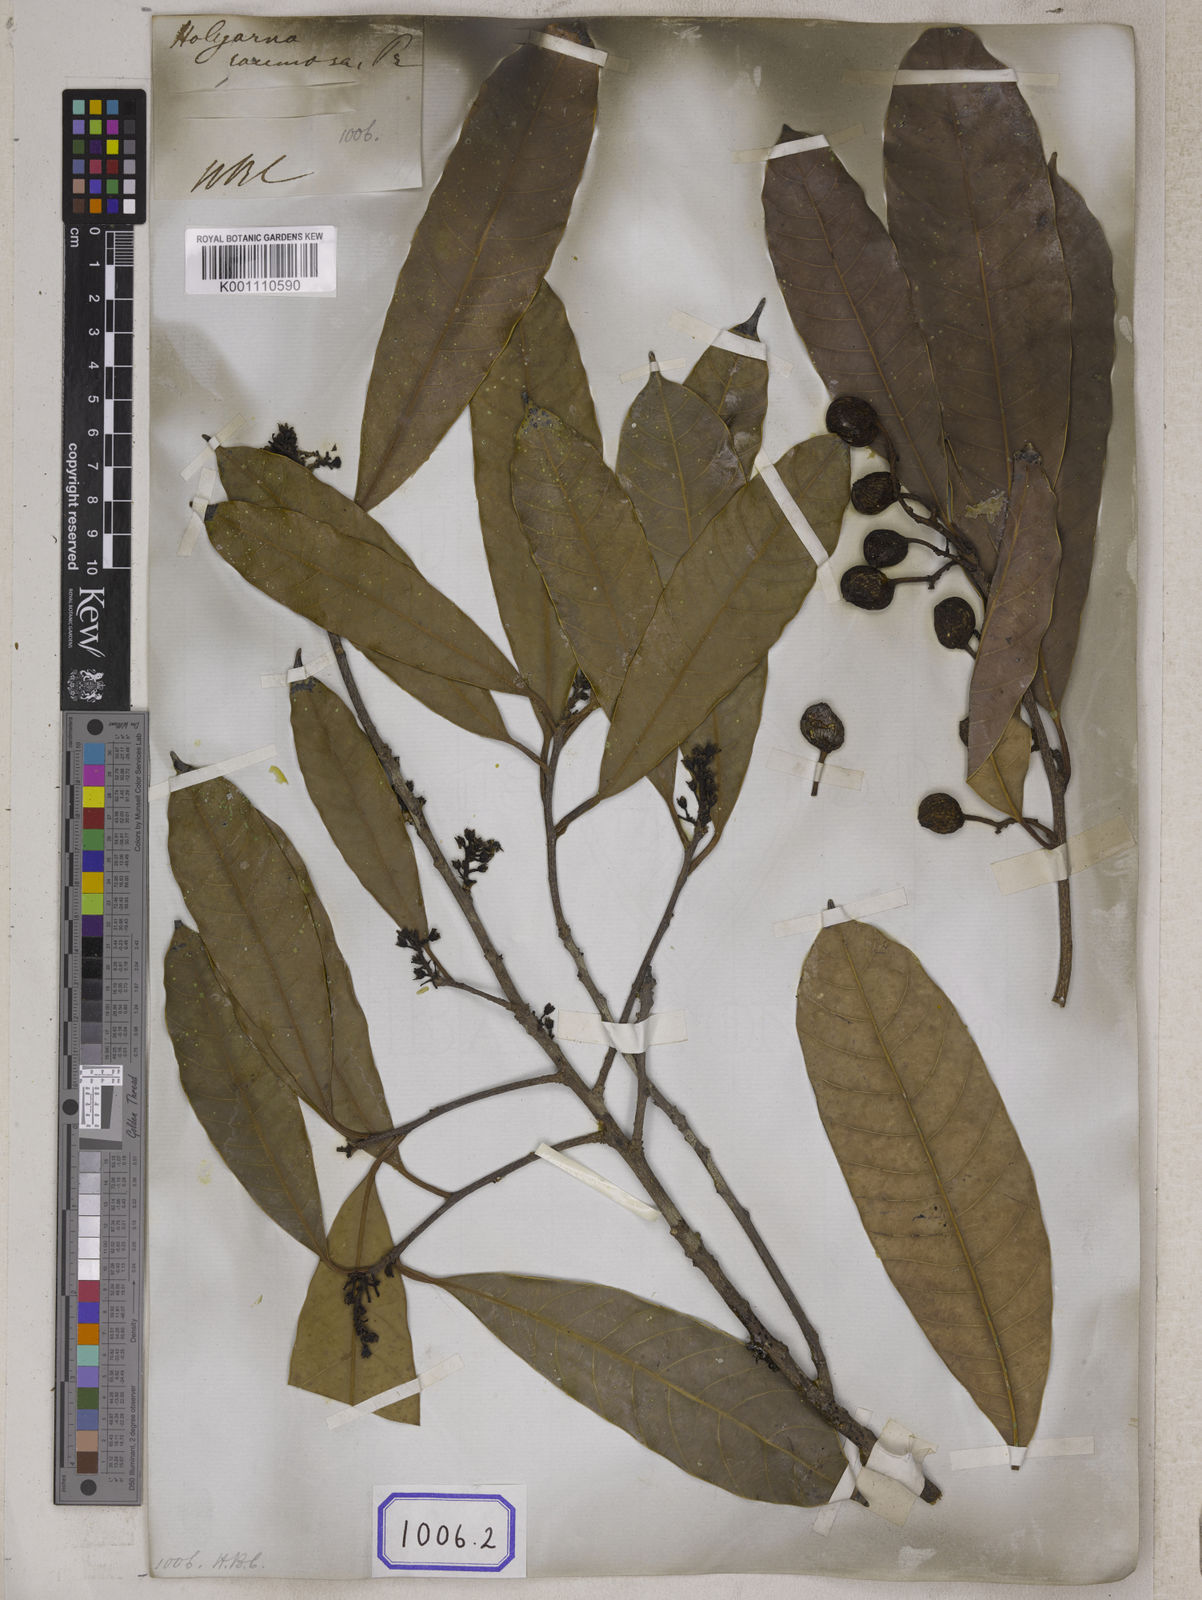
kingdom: Plantae
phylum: Tracheophyta
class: Magnoliopsida
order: Sapindales
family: Anacardiaceae
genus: Drimycarpus
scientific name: Drimycarpus racemosus
